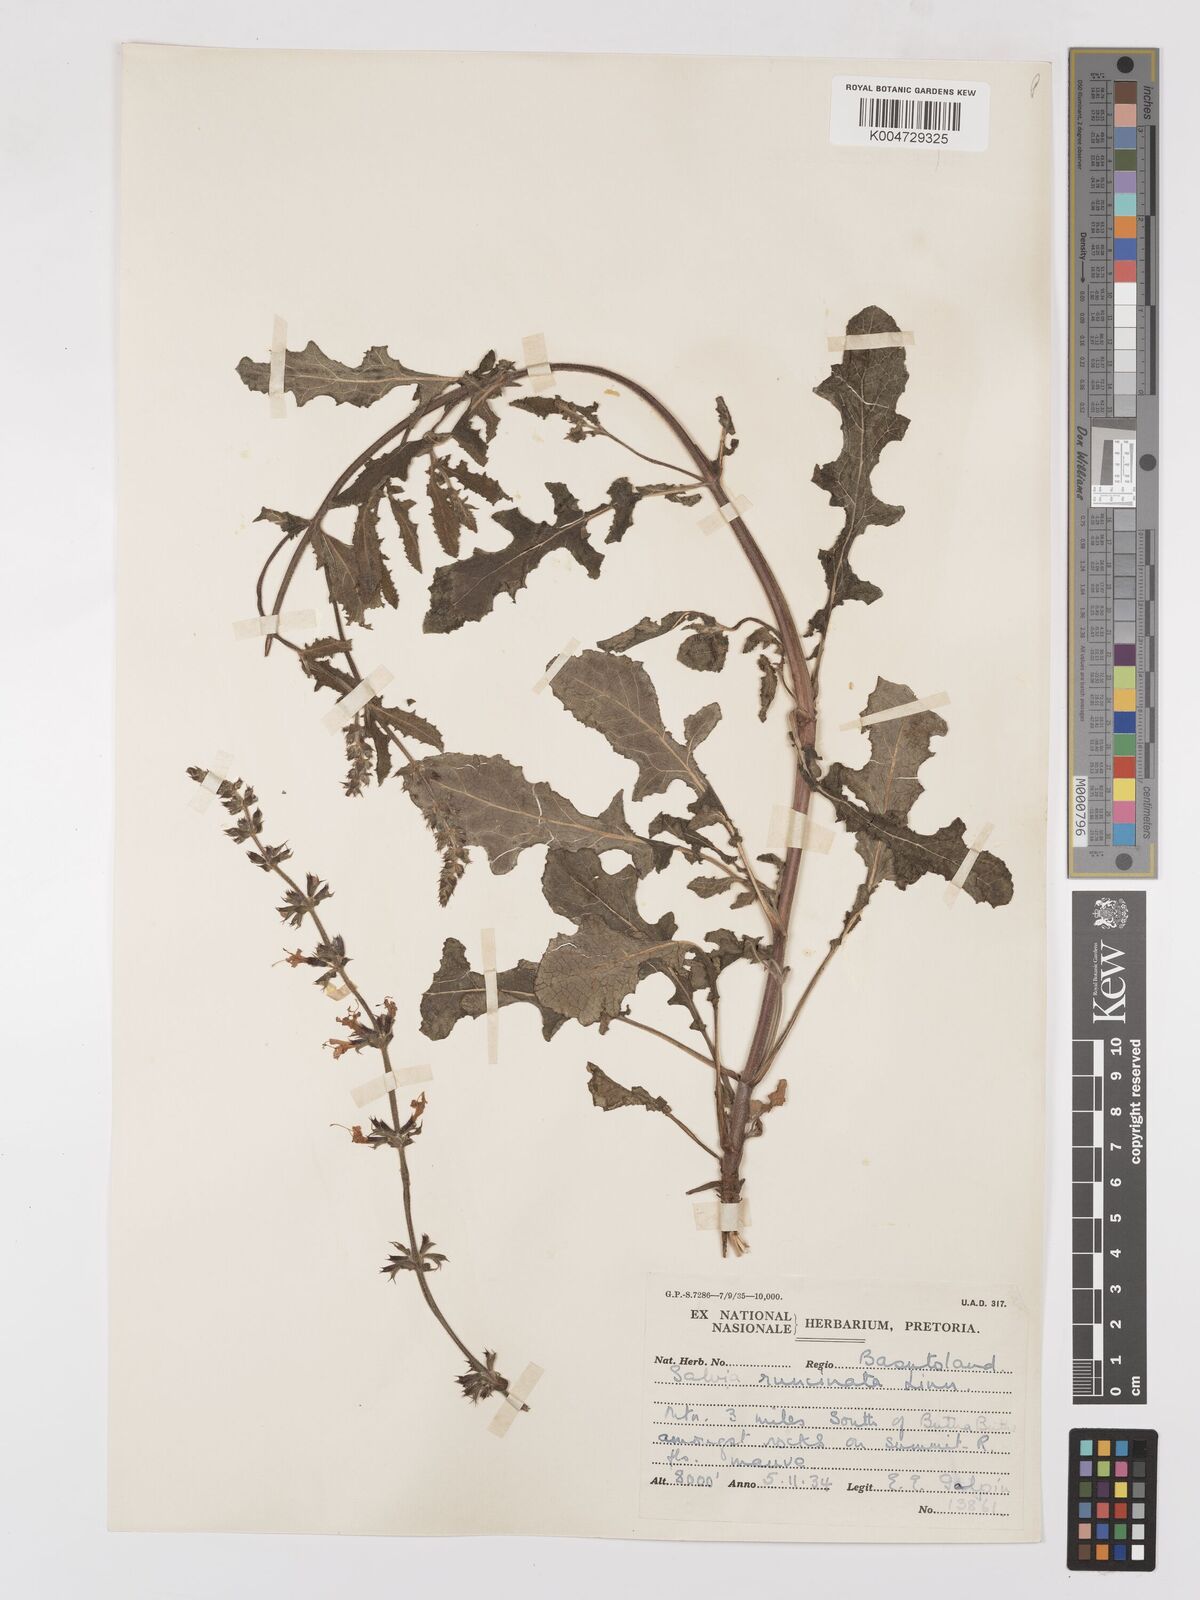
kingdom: Plantae
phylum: Tracheophyta
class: Magnoliopsida
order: Lamiales
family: Lamiaceae
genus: Salvia
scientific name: Salvia runcinata
